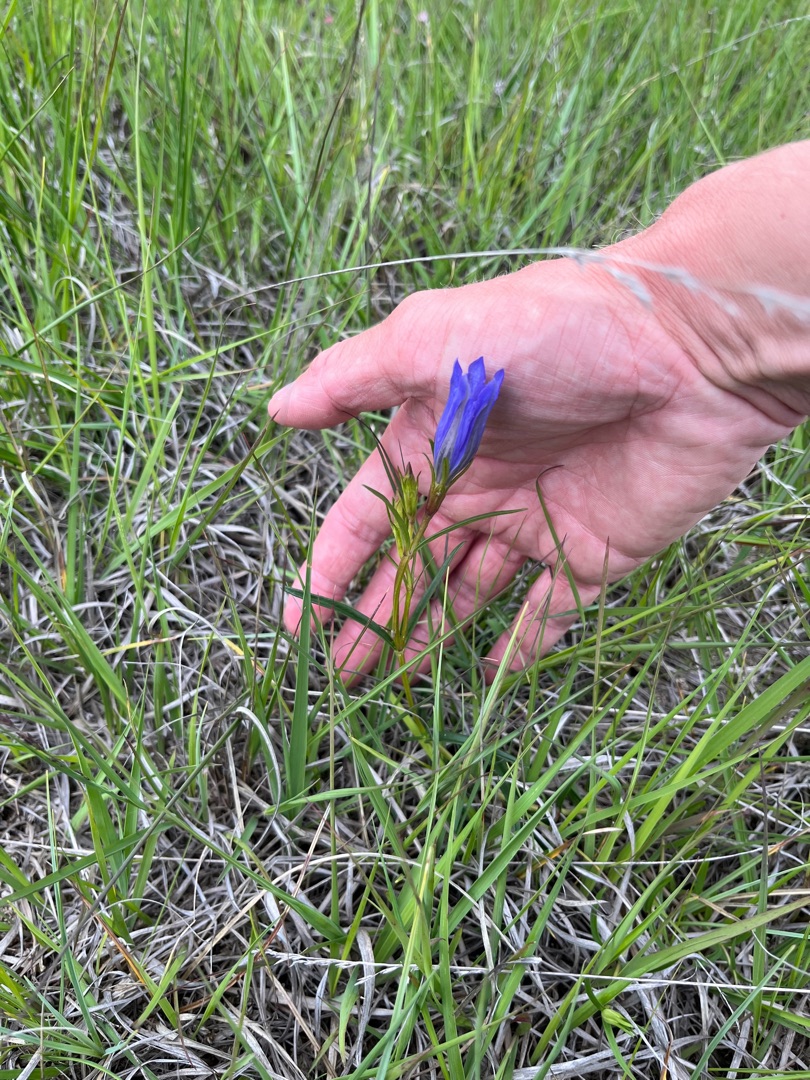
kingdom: Plantae
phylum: Tracheophyta
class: Magnoliopsida
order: Gentianales
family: Gentianaceae
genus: Gentiana
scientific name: Gentiana pneumonanthe
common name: Klokke-ensian
